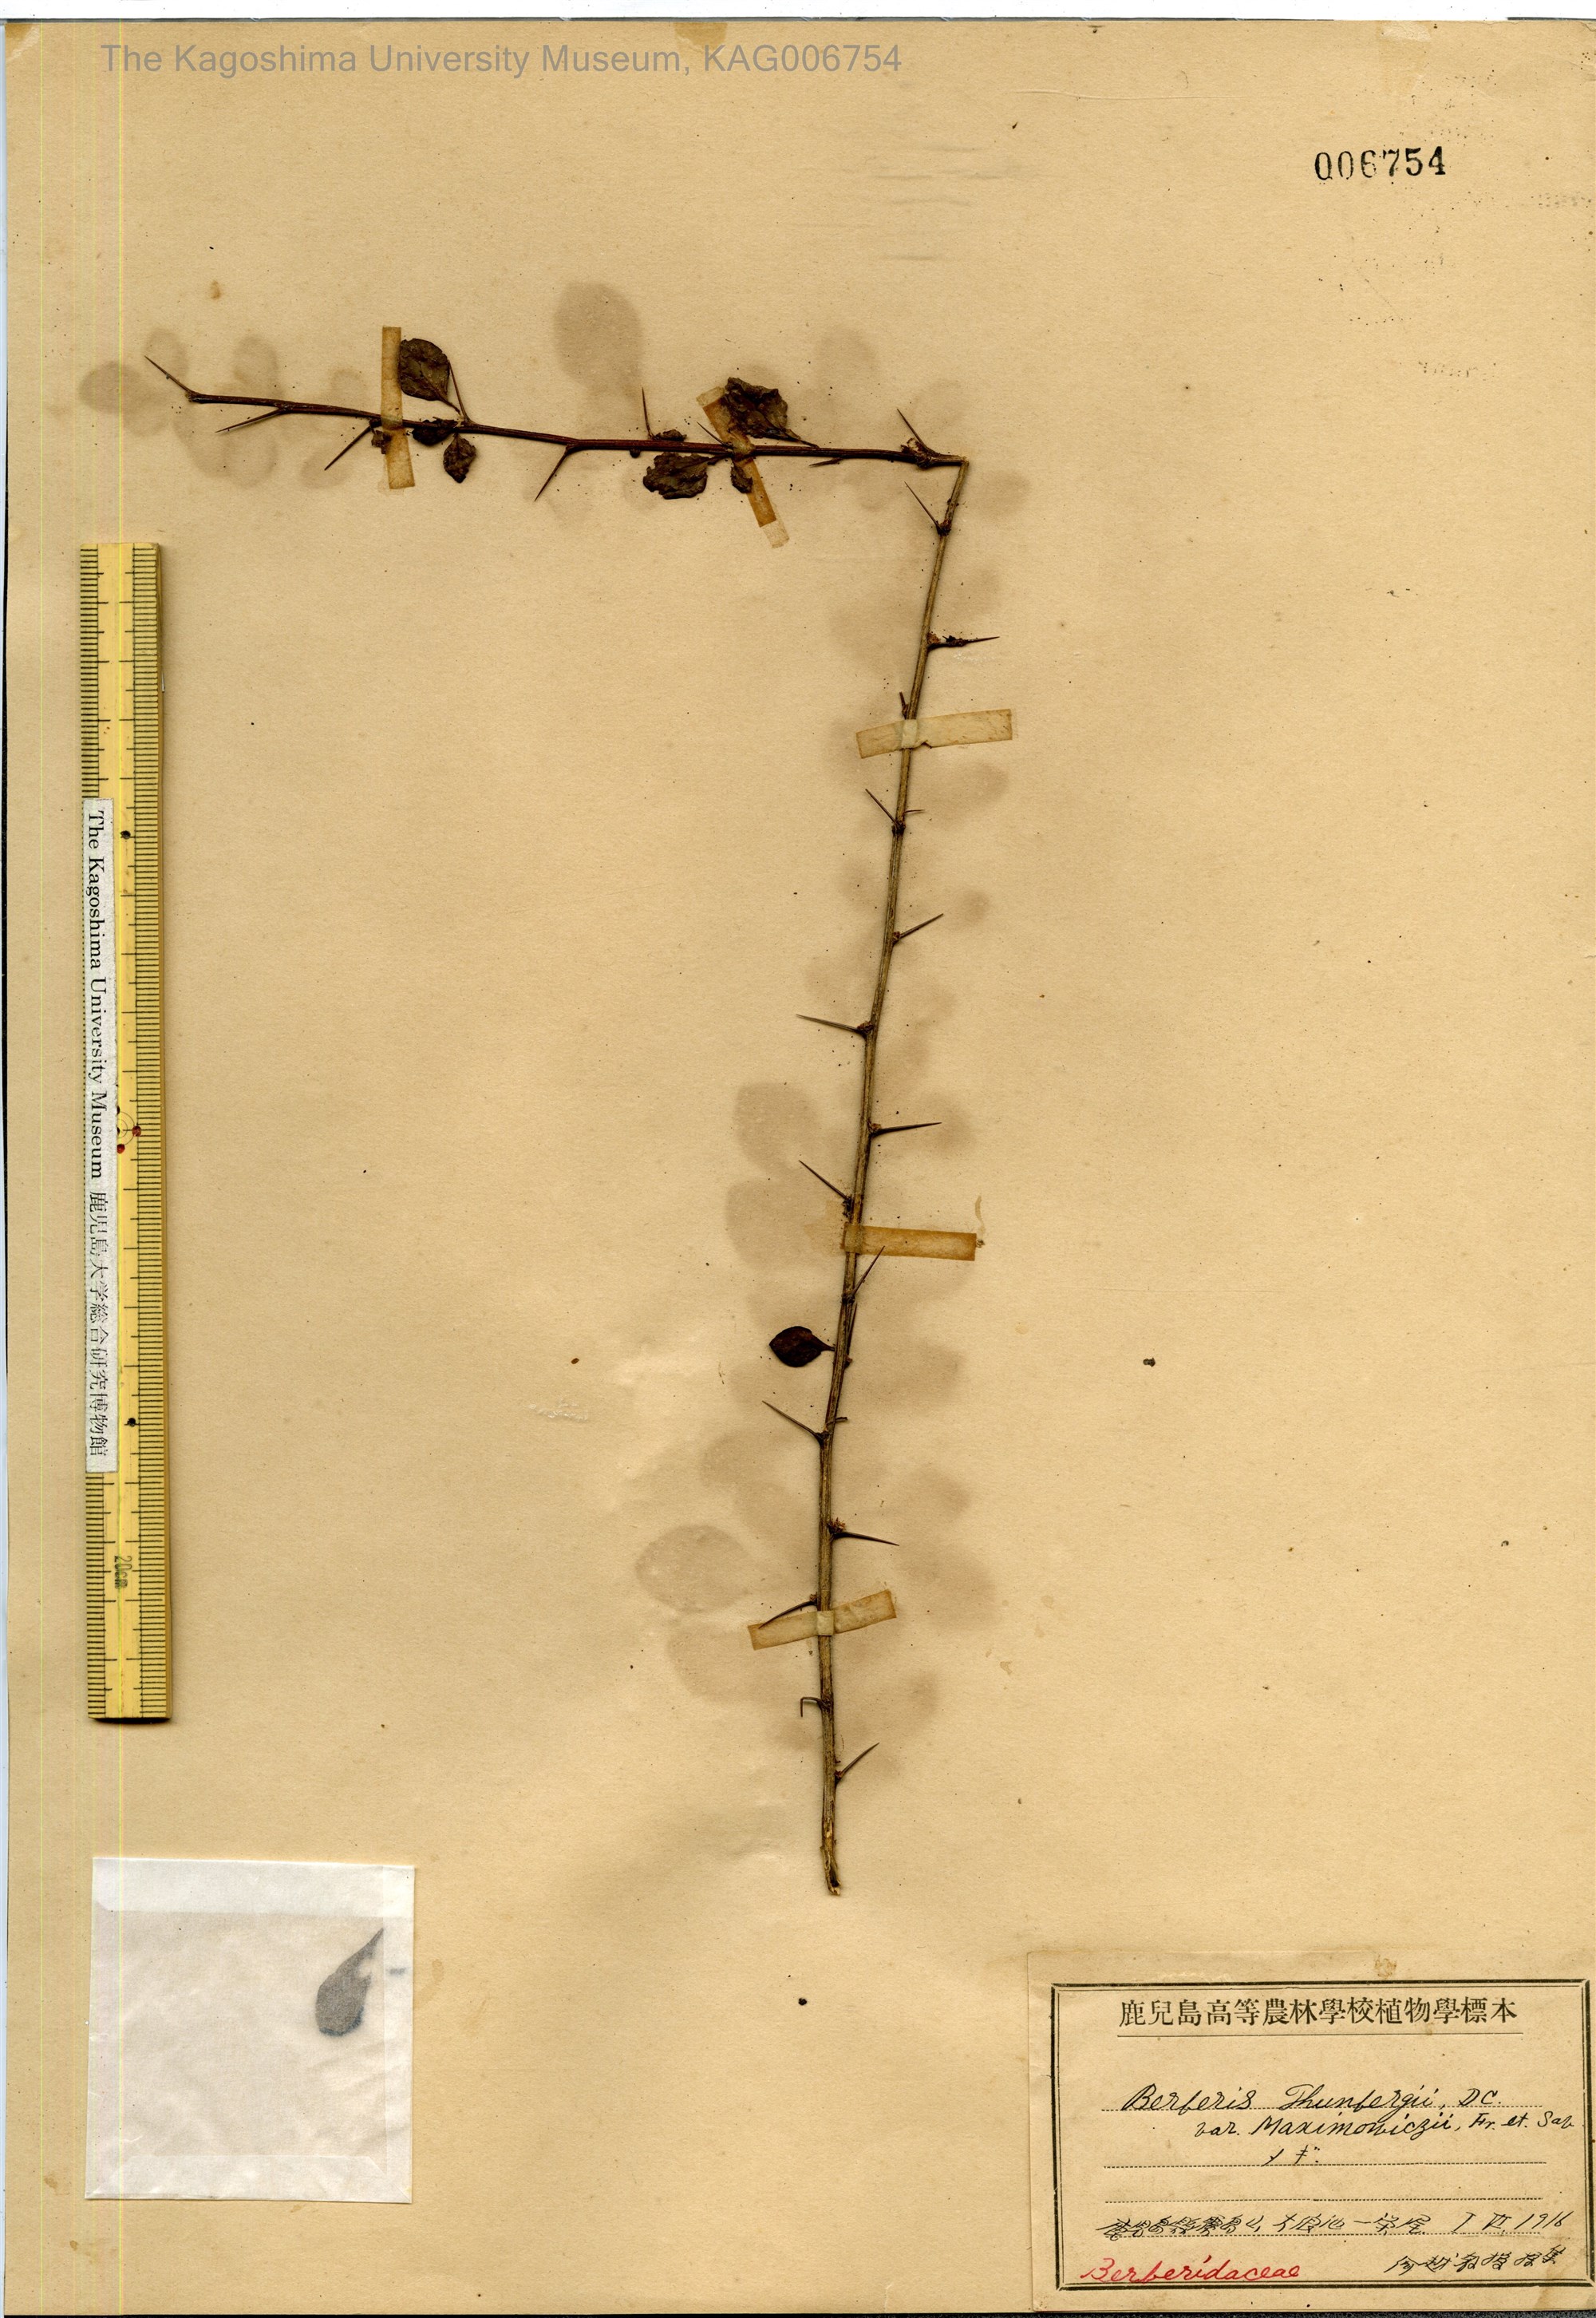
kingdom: Plantae
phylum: Tracheophyta
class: Magnoliopsida
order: Ranunculales
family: Berberidaceae
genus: Berberis
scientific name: Berberis thunbergii
